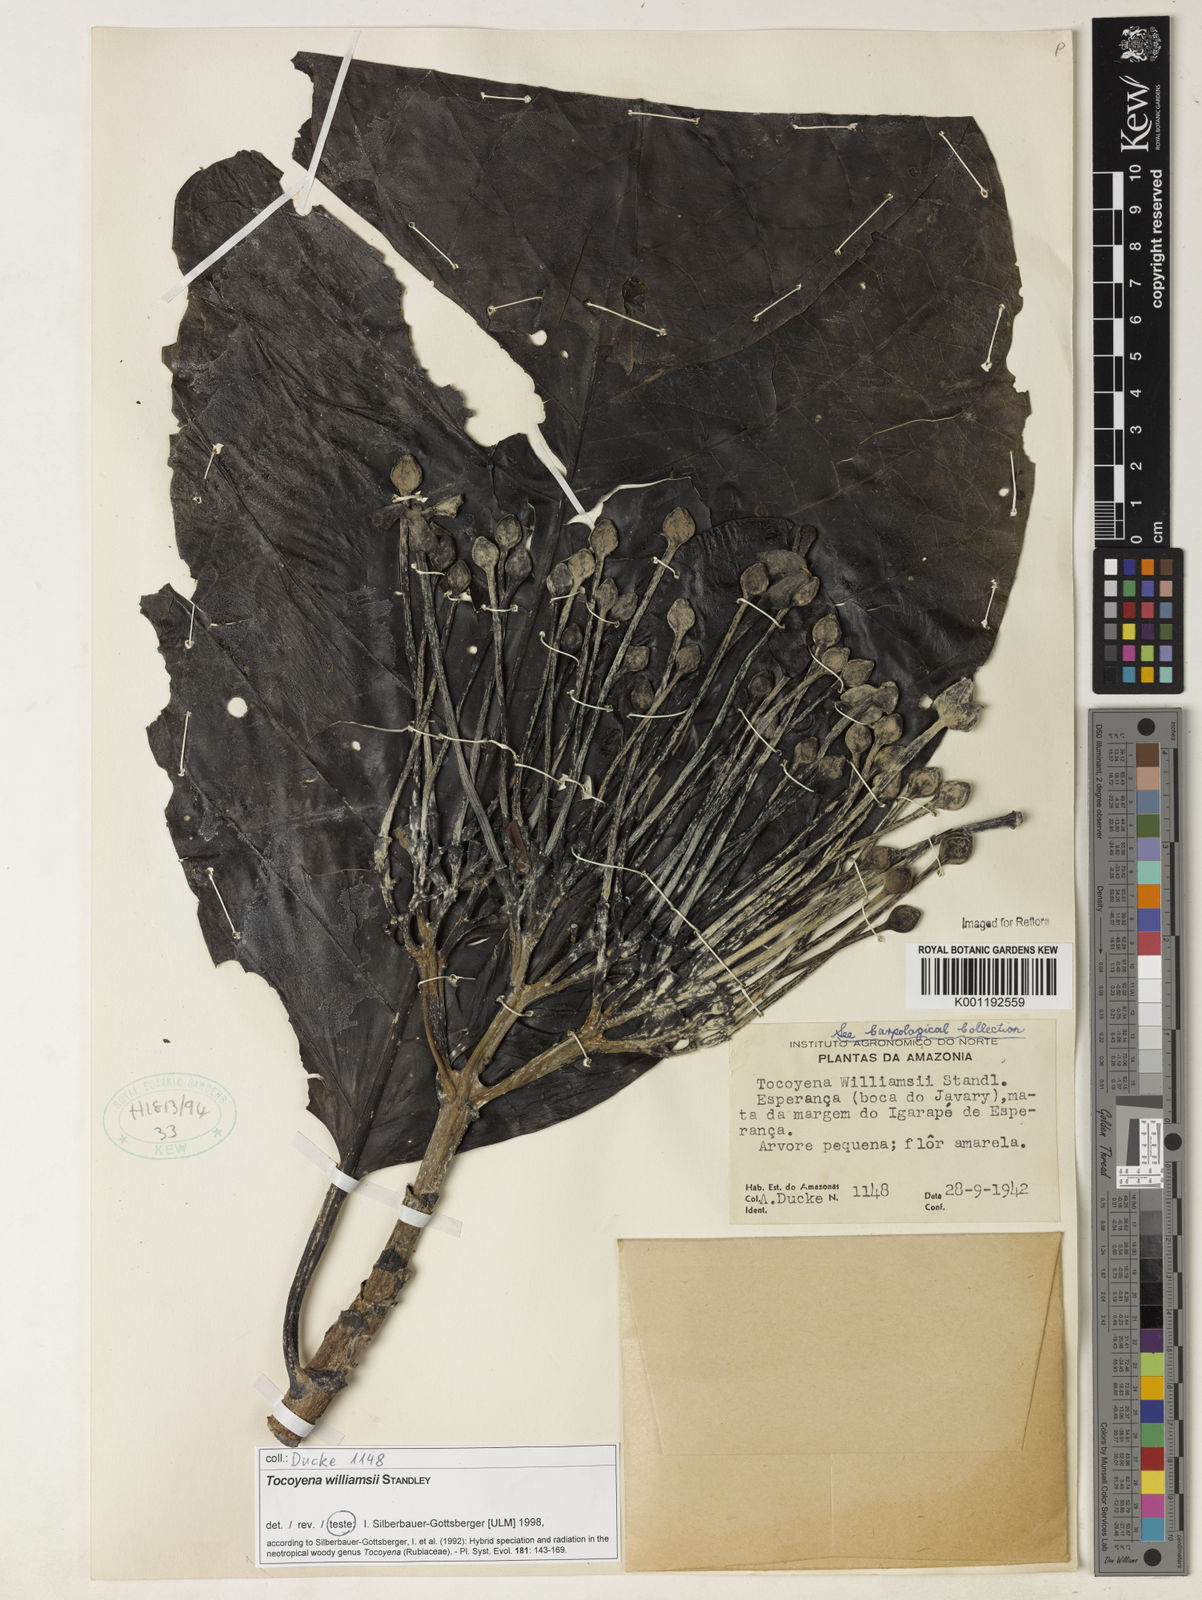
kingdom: Plantae
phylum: Tracheophyta
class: Magnoliopsida
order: Gentianales
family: Rubiaceae
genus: Tocoyena
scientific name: Tocoyena pittieri
